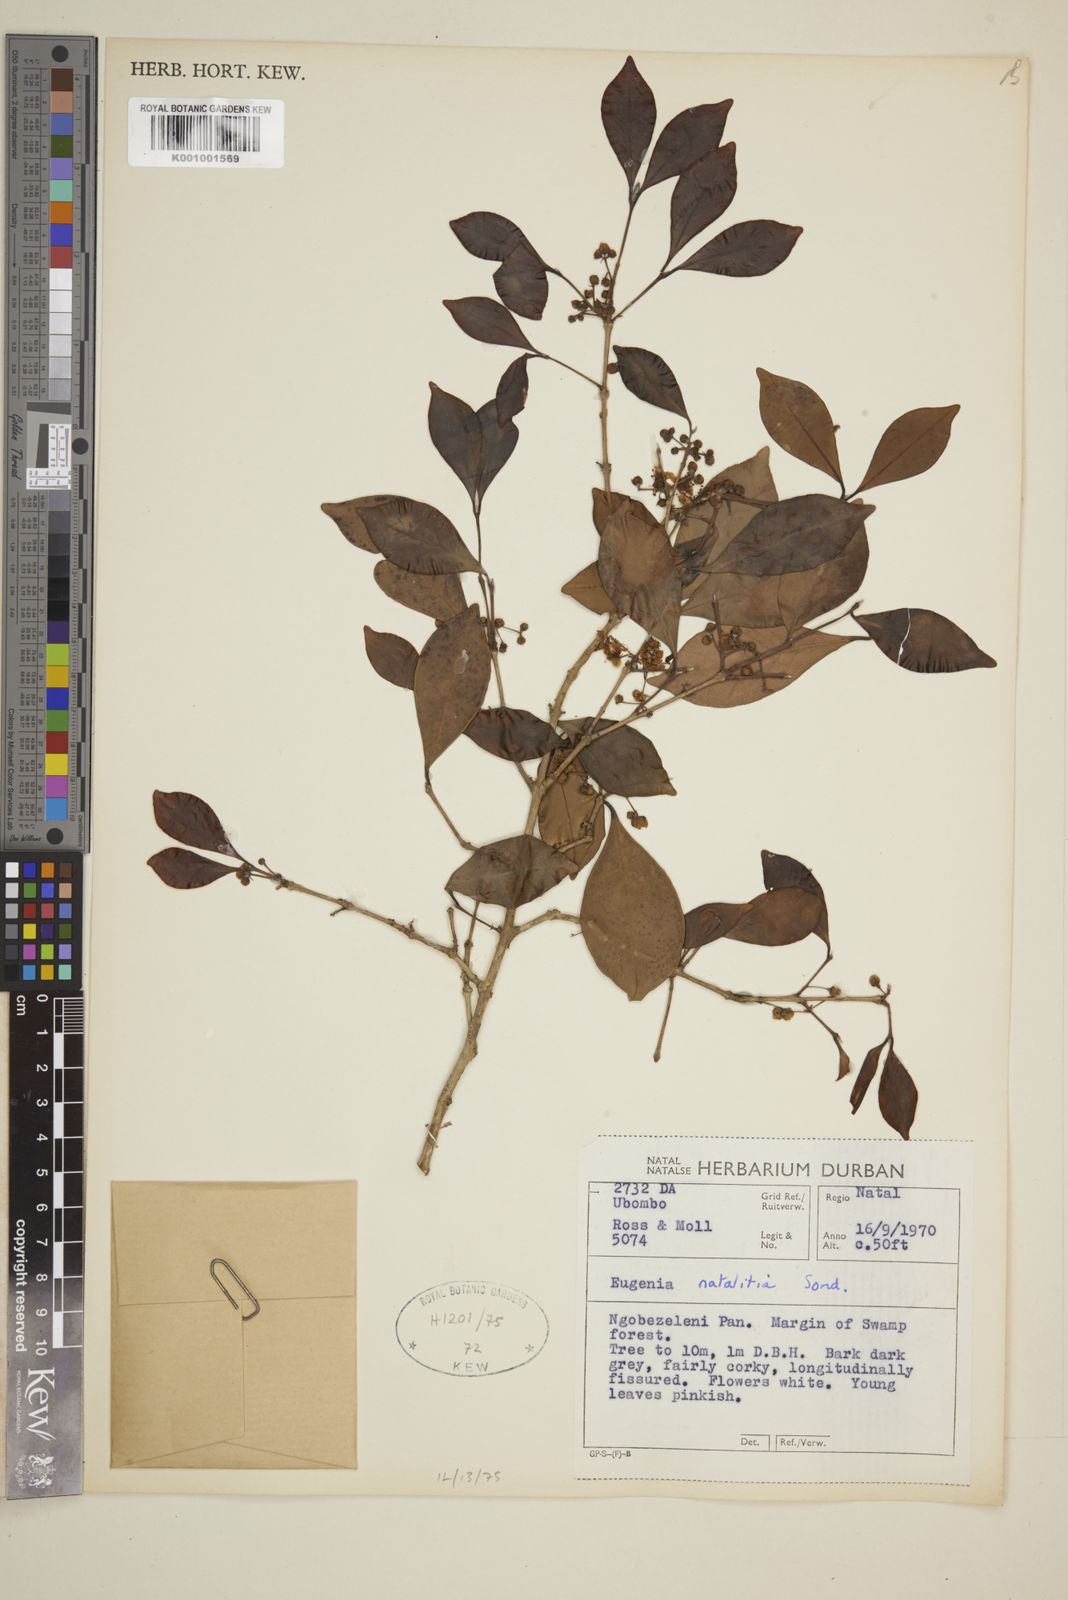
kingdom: Plantae
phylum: Tracheophyta
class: Magnoliopsida
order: Myrtales
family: Myrtaceae
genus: Eugenia
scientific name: Eugenia natalitia
